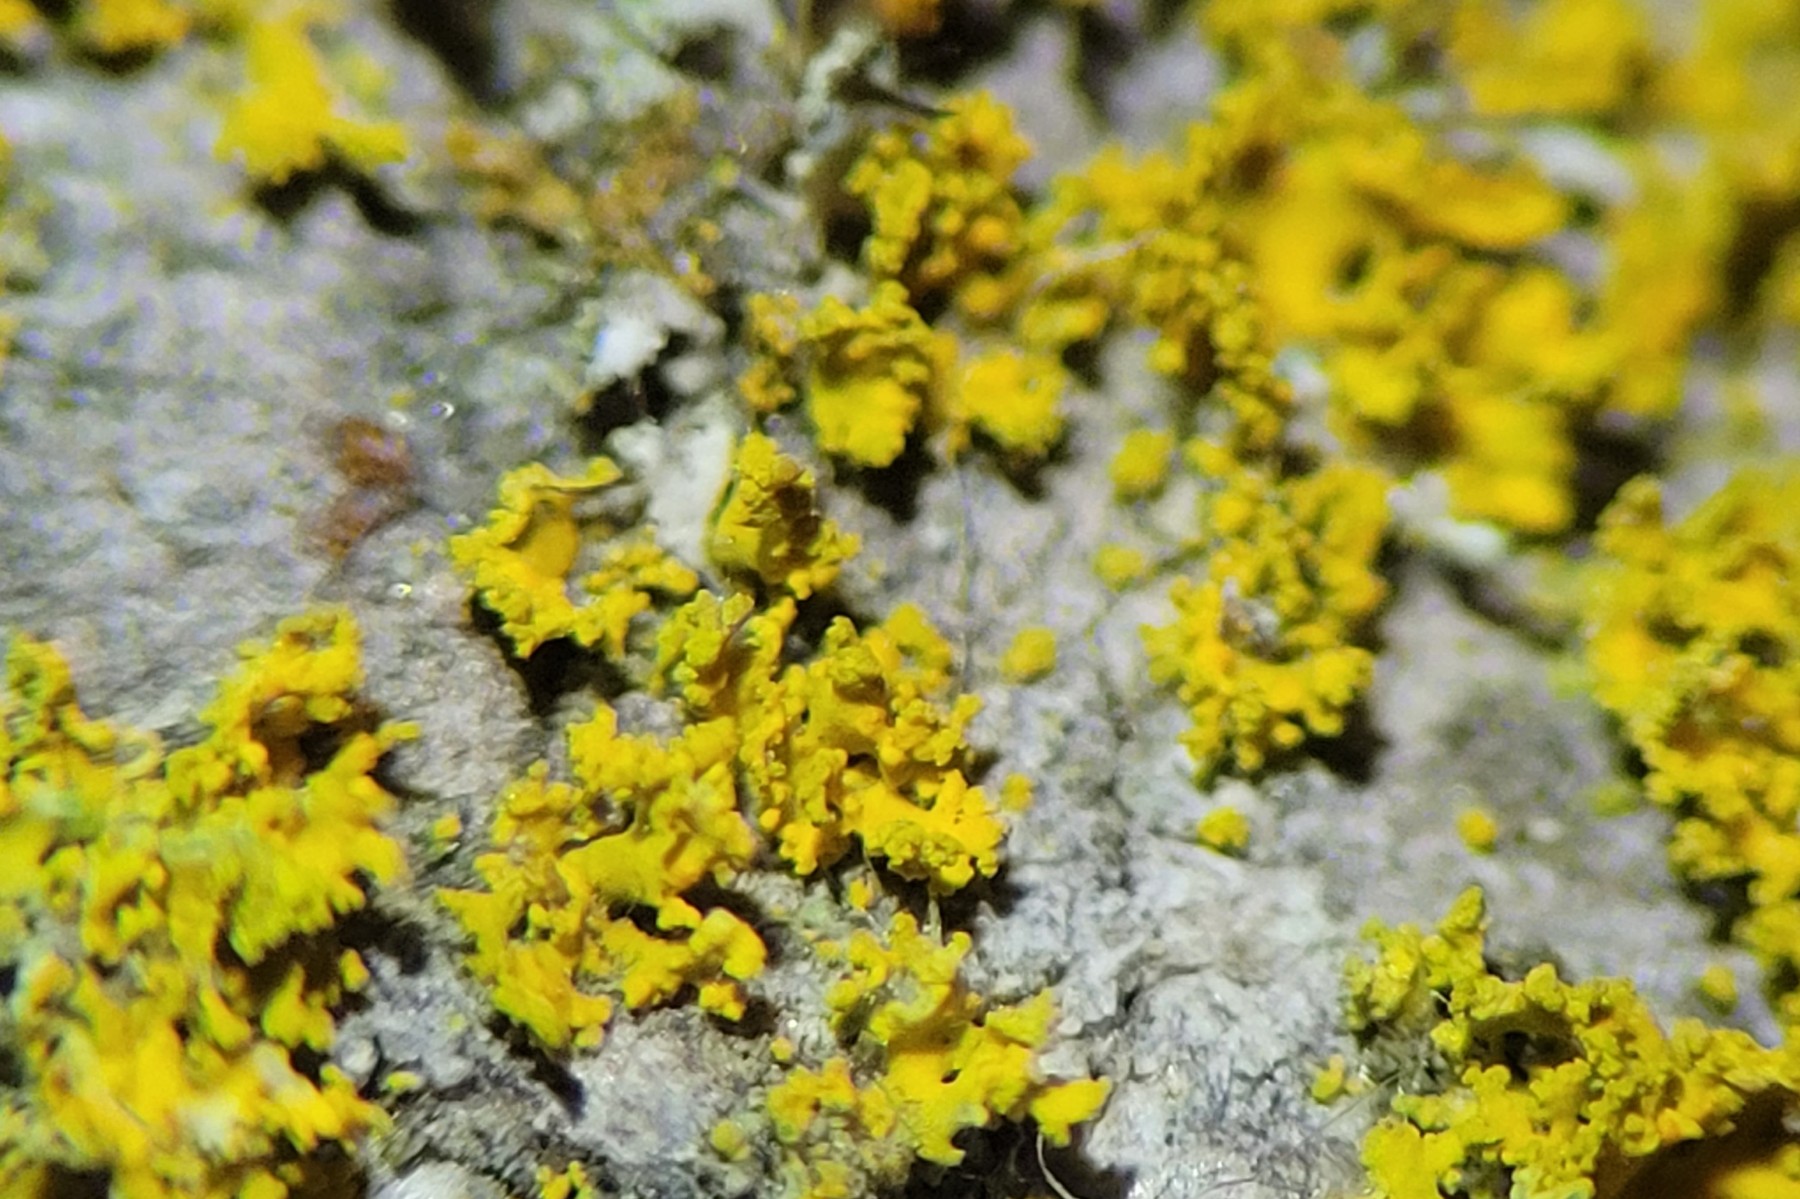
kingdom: Fungi
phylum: Ascomycota
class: Lecanoromycetes
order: Teloschistales
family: Teloschistaceae
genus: Polycauliona
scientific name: Polycauliona candelaria
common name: tue-orangelav
